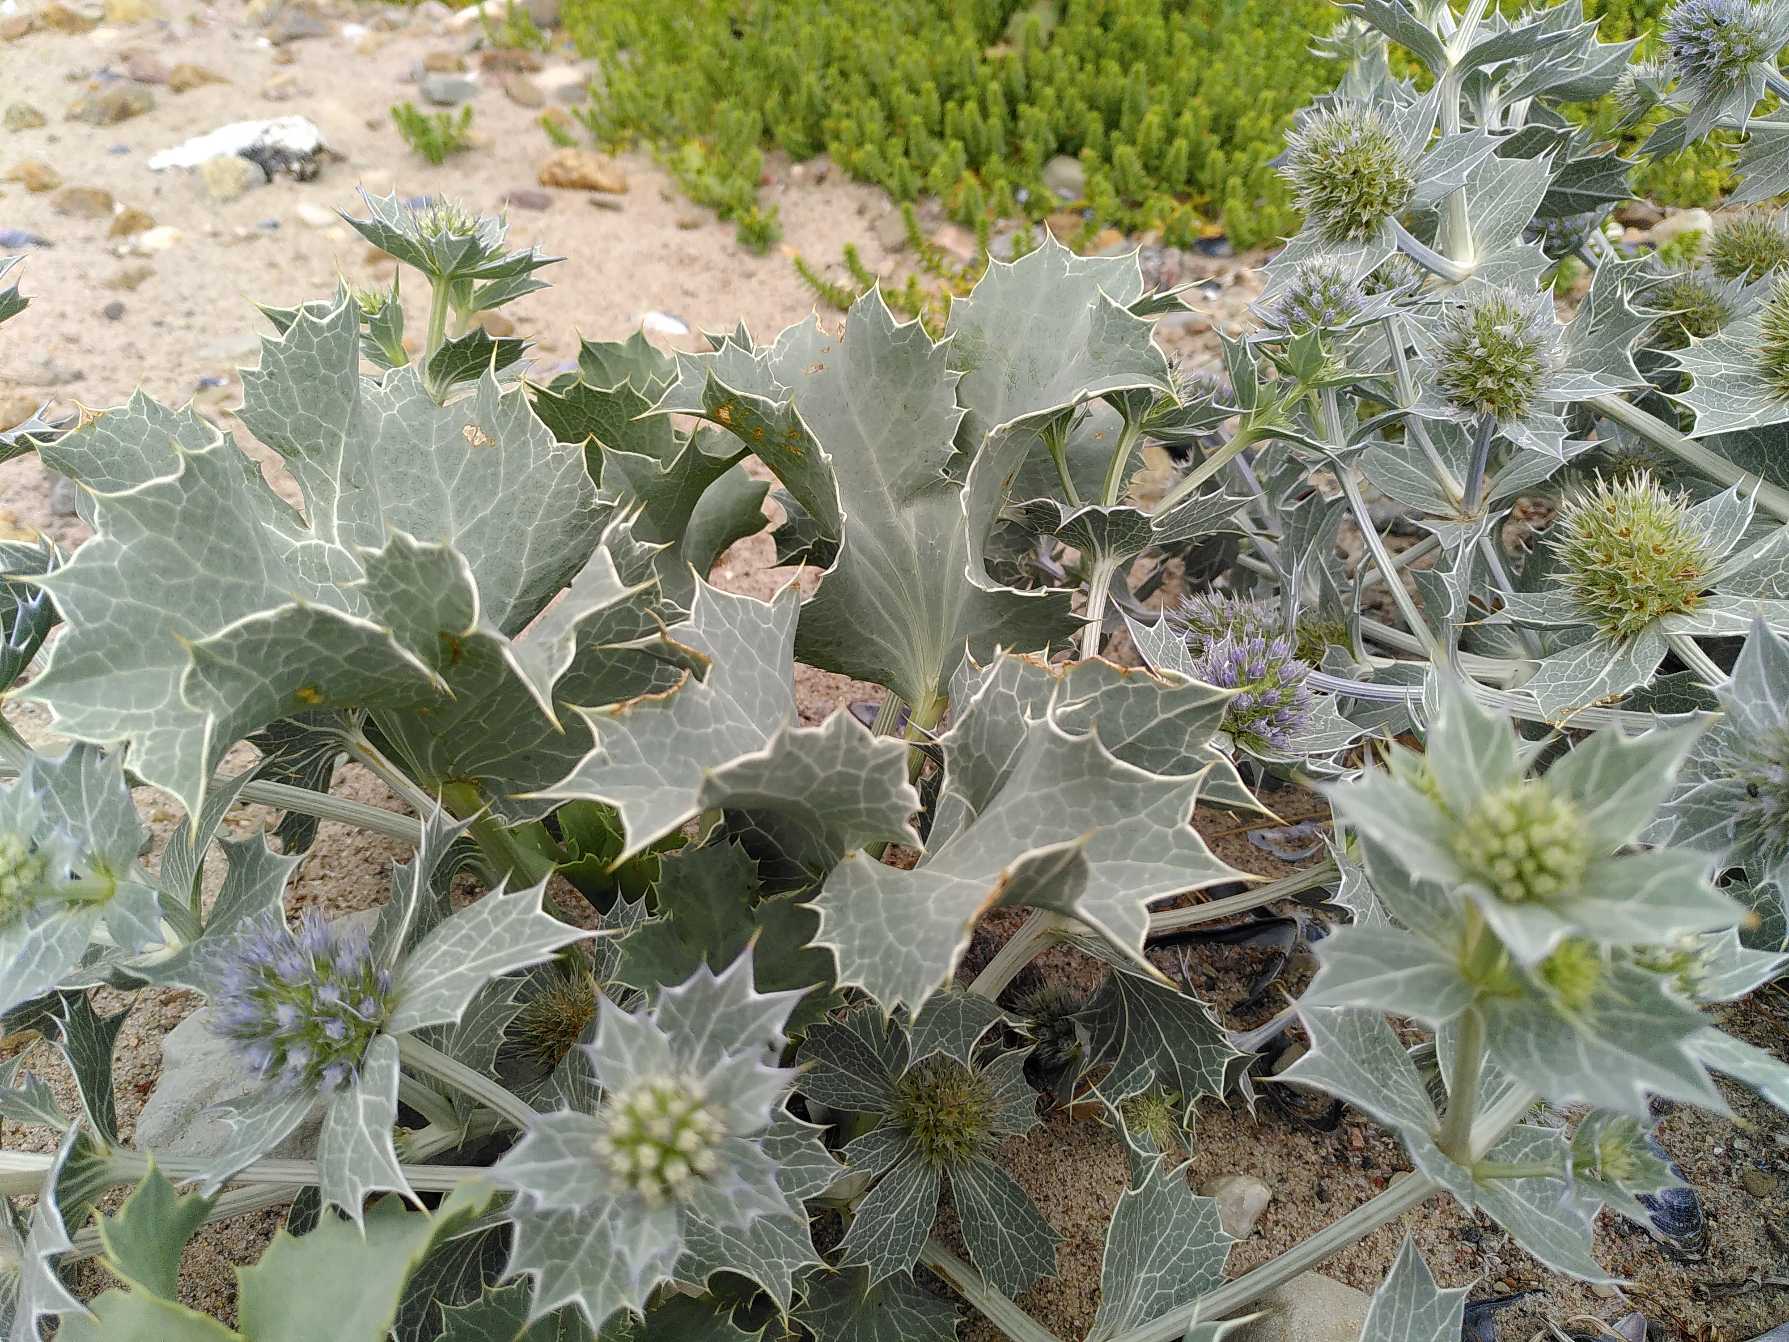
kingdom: Plantae
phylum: Tracheophyta
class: Magnoliopsida
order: Apiales
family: Apiaceae
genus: Eryngium
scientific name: Eryngium maritimum
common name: Strand-mandstro
